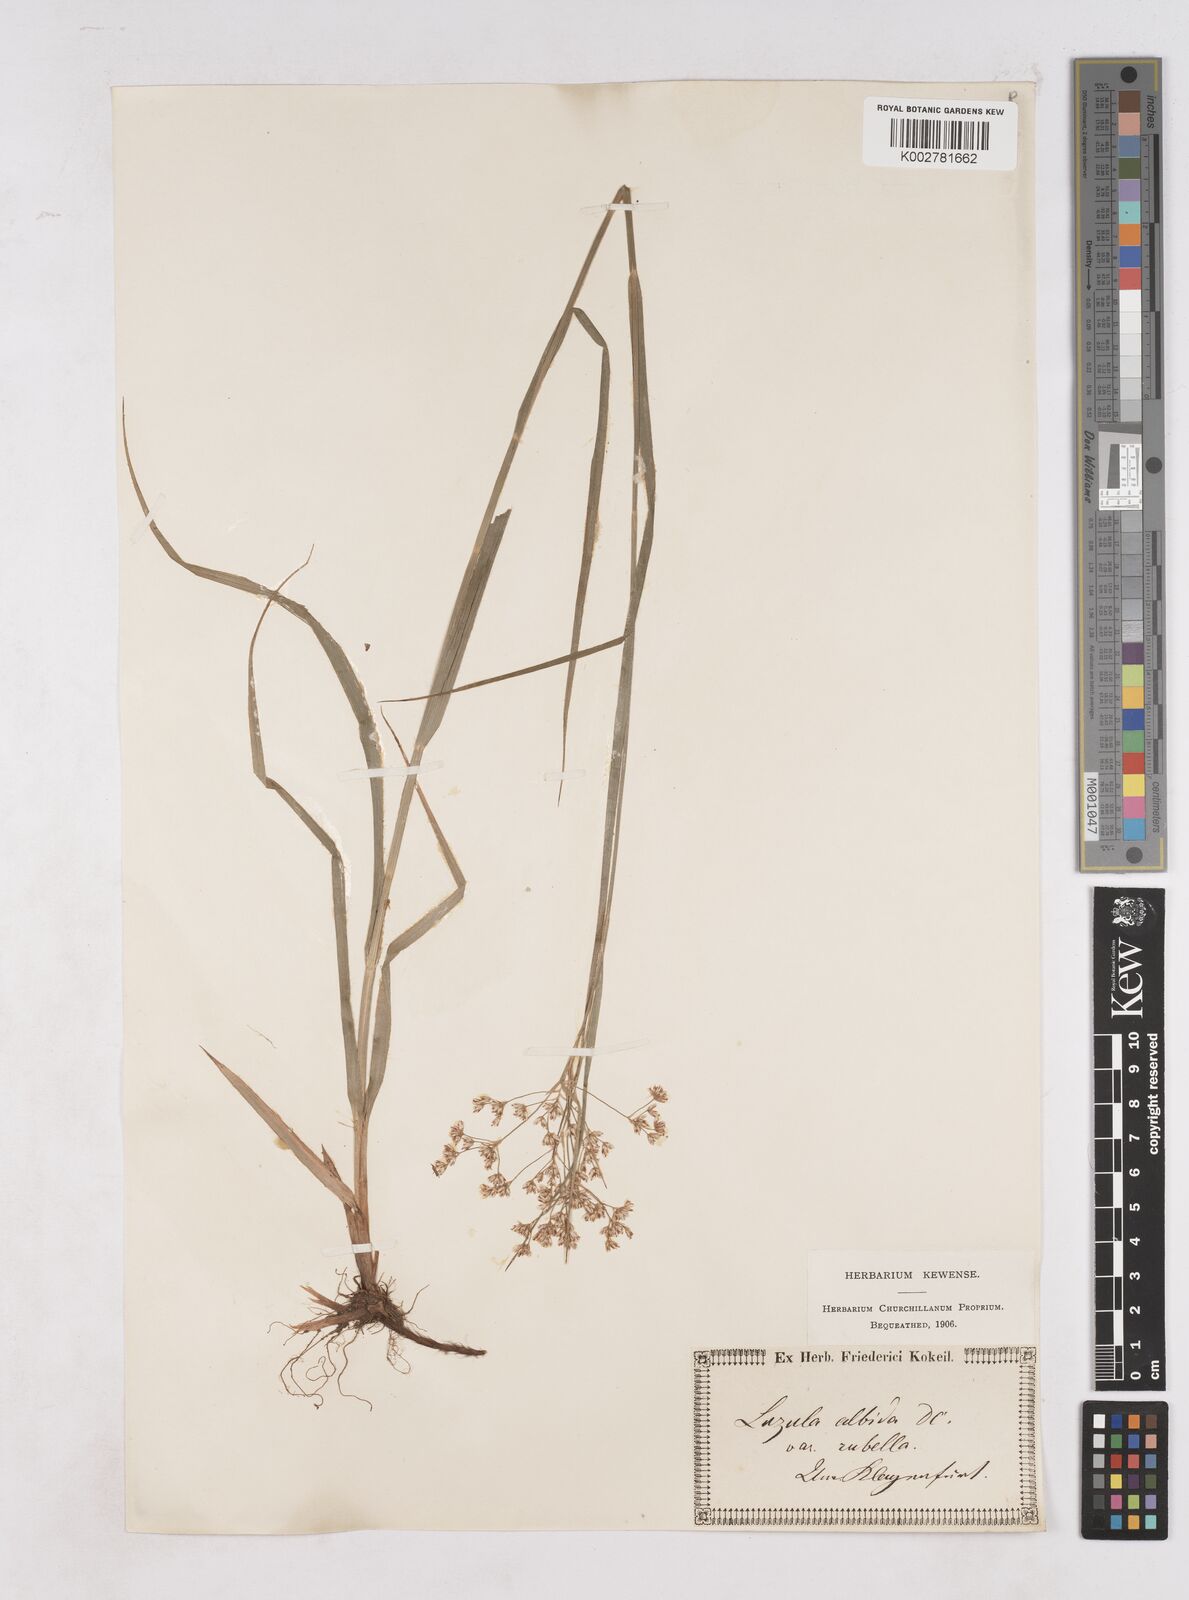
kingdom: Plantae
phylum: Tracheophyta
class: Liliopsida
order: Poales
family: Juncaceae
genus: Luzula
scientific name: Luzula luzuloides
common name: White wood-rush
